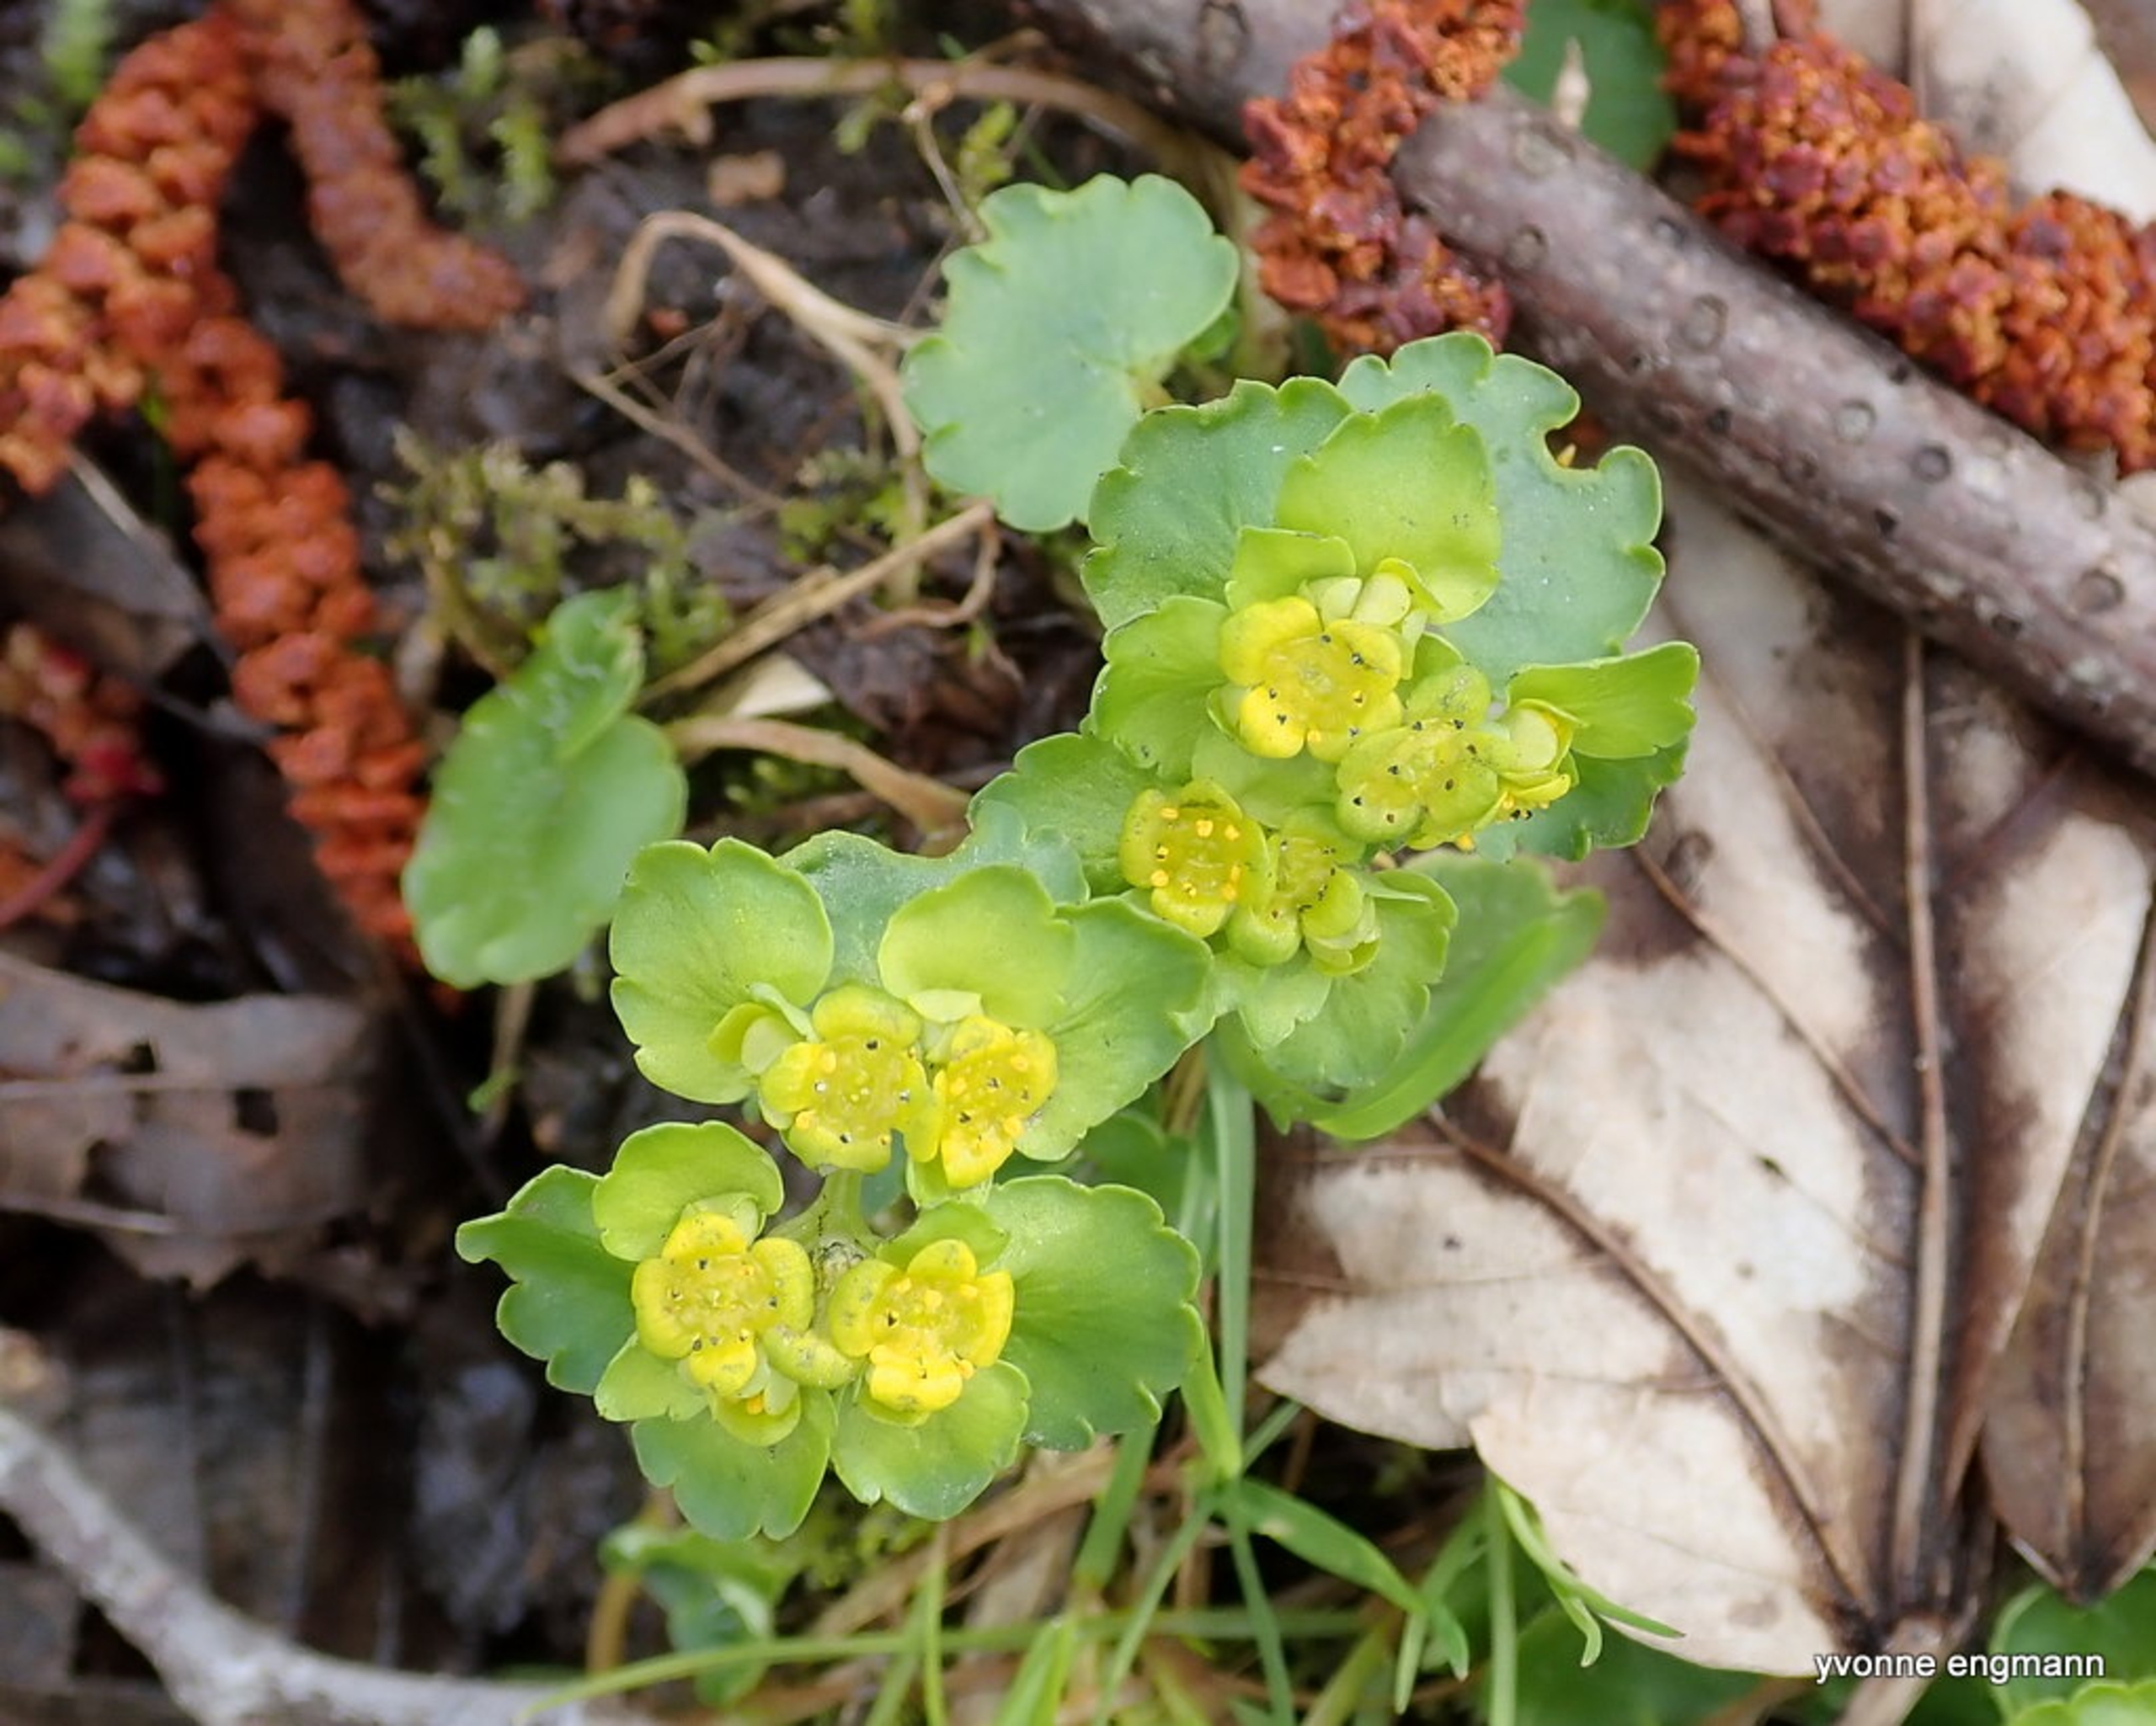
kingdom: Plantae
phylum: Tracheophyta
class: Magnoliopsida
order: Saxifragales
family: Saxifragaceae
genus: Chrysosplenium
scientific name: Chrysosplenium alternifolium
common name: Almindelig milturt
